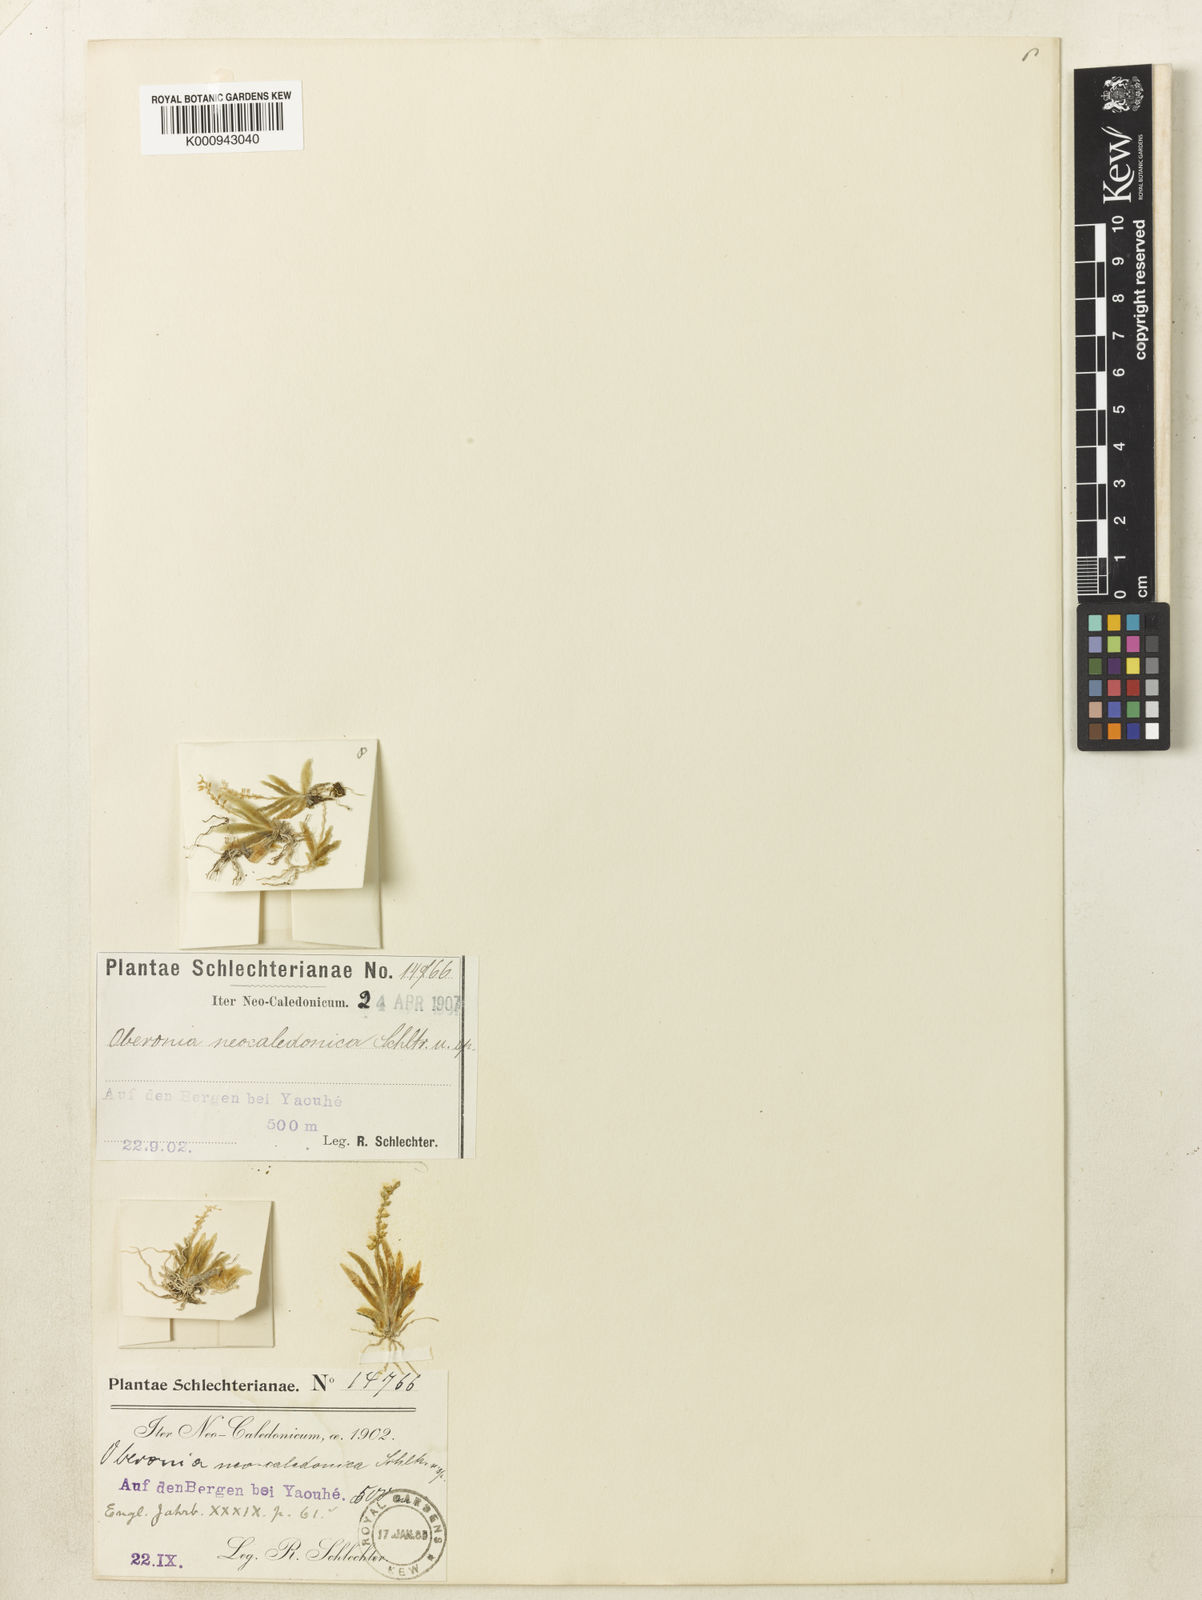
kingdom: Plantae
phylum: Tracheophyta
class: Liliopsida
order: Asparagales
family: Orchidaceae
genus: Oberonia
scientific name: Oberonia titania
